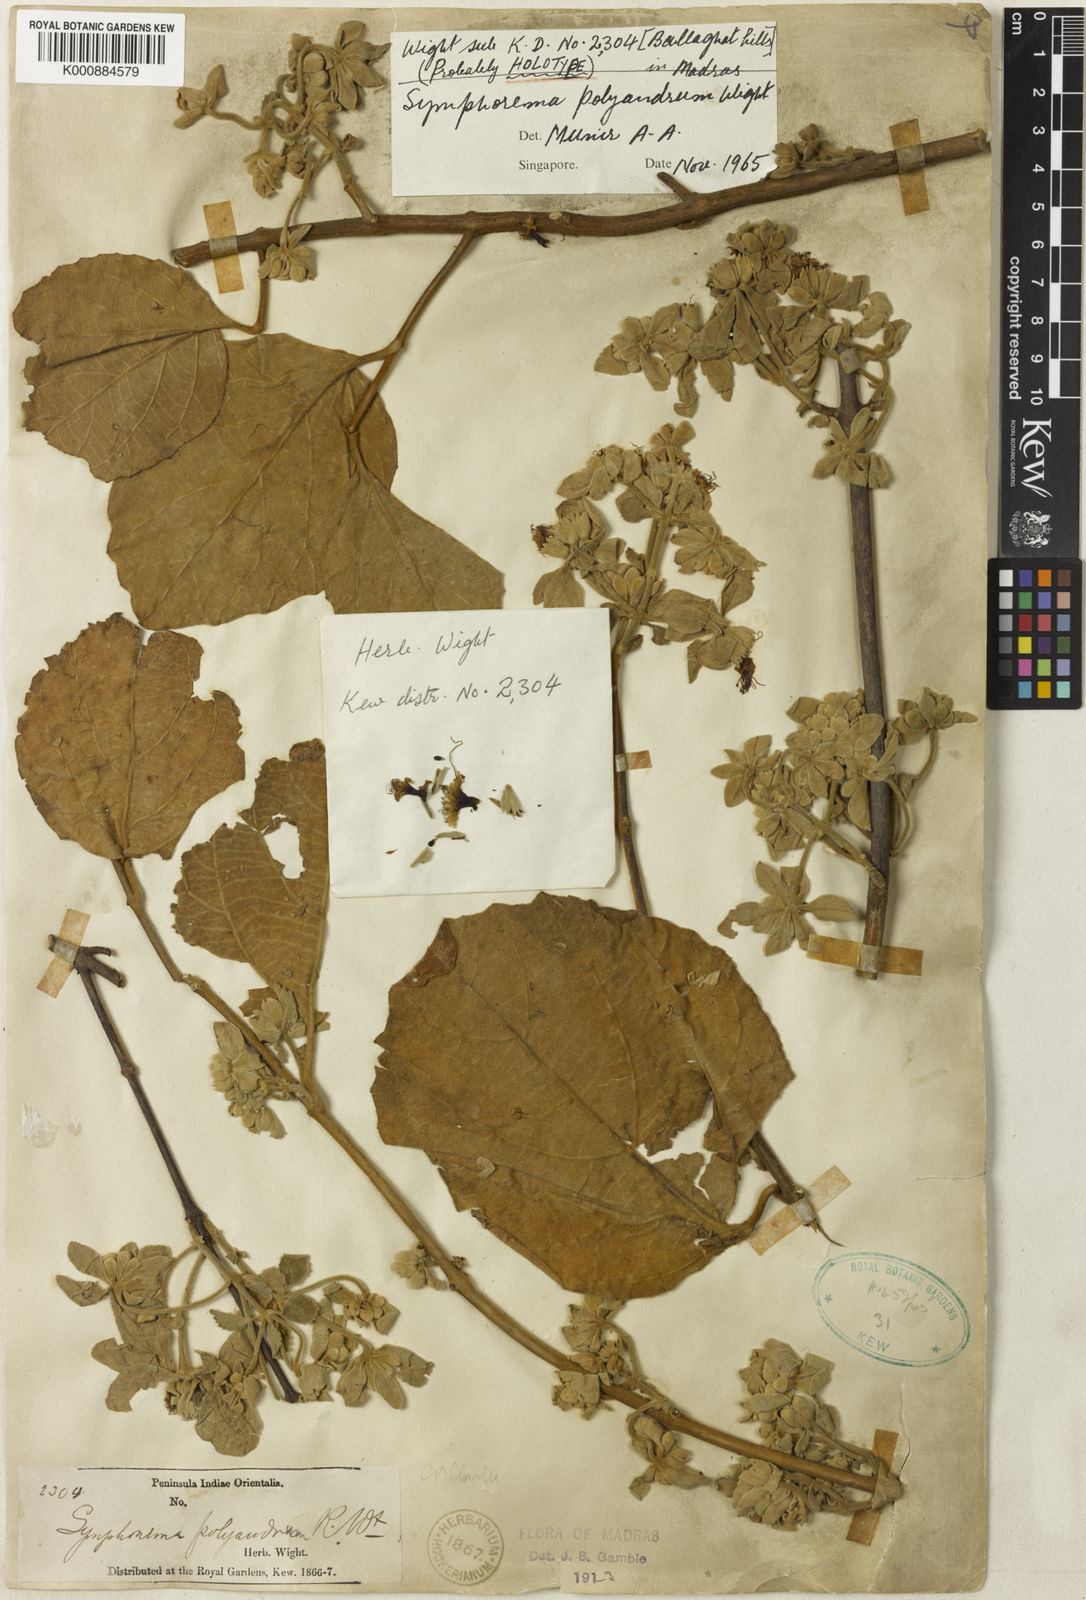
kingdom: Plantae
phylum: Tracheophyta
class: Magnoliopsida
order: Lamiales
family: Lamiaceae
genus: Symphorema
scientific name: Symphorema polyandrum
